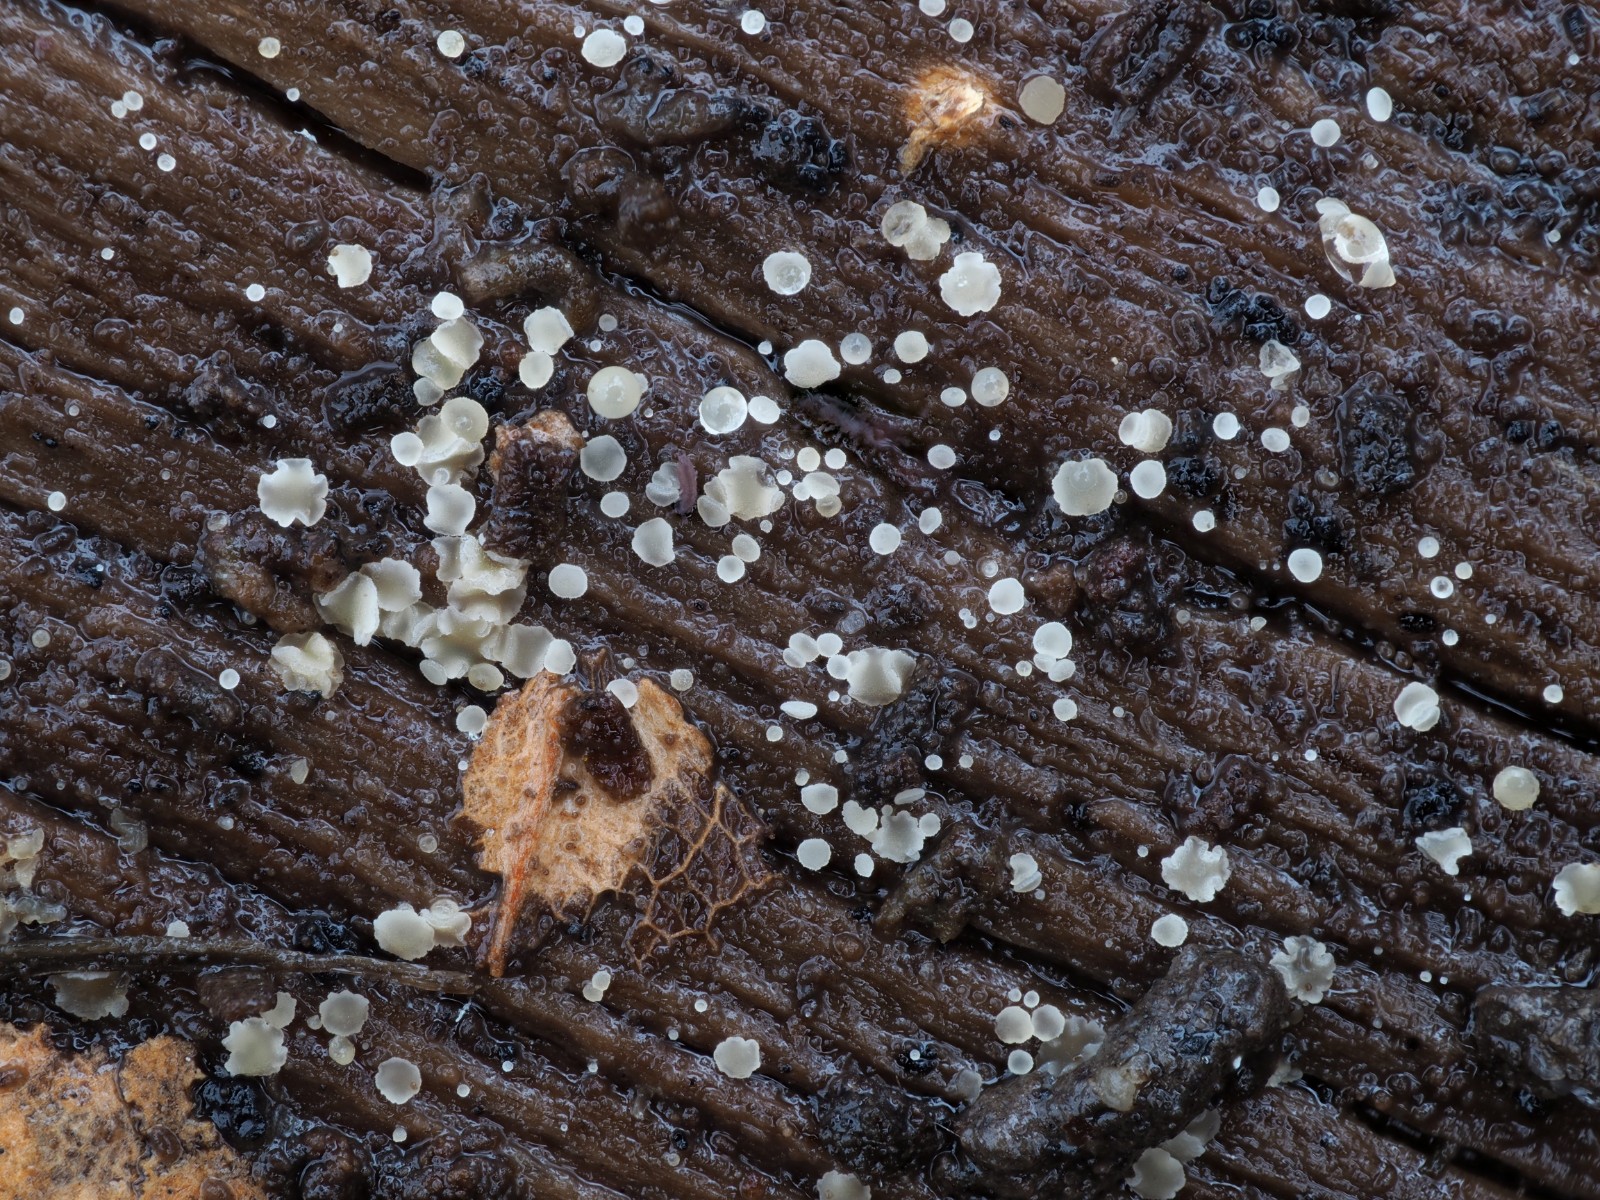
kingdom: Fungi
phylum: Ascomycota
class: Leotiomycetes
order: Helotiales
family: Hyaloscyphaceae
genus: Hyaloscypha
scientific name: Hyaloscypha
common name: klarskive
